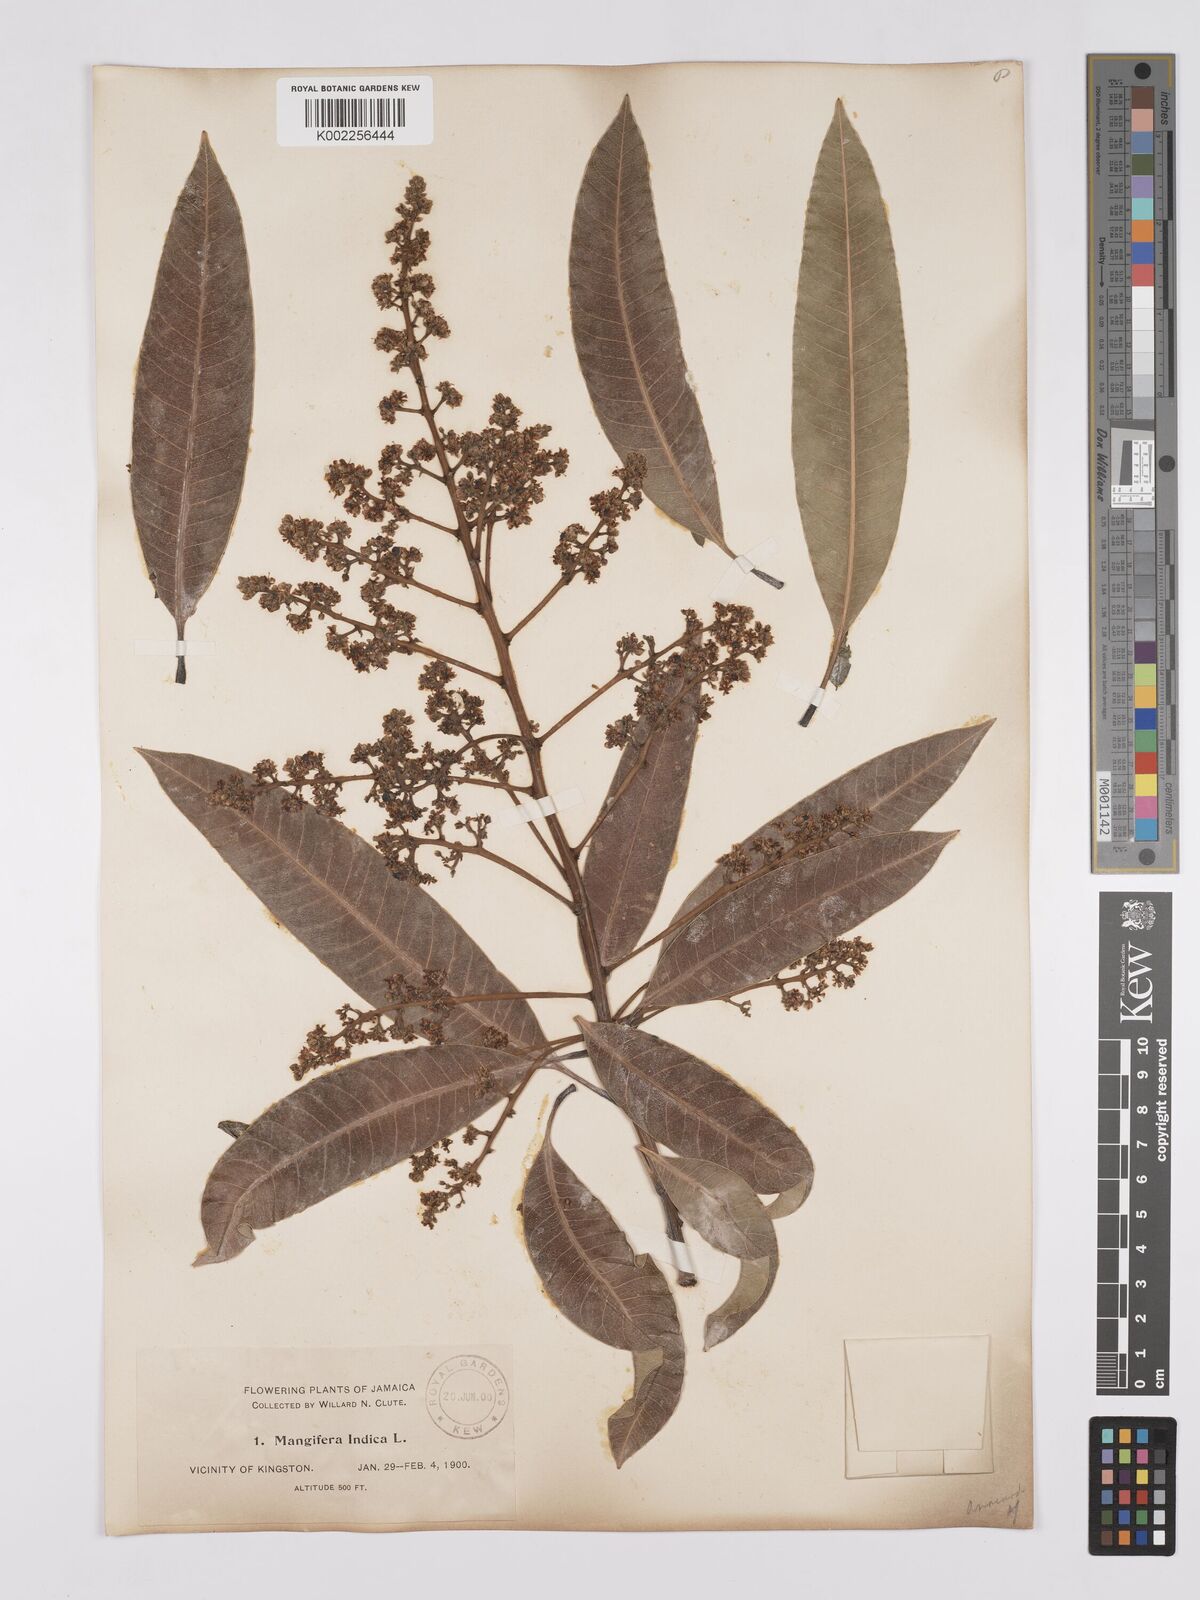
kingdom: Plantae
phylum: Tracheophyta
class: Magnoliopsida
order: Sapindales
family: Anacardiaceae
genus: Mangifera
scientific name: Mangifera indica
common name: Mango
